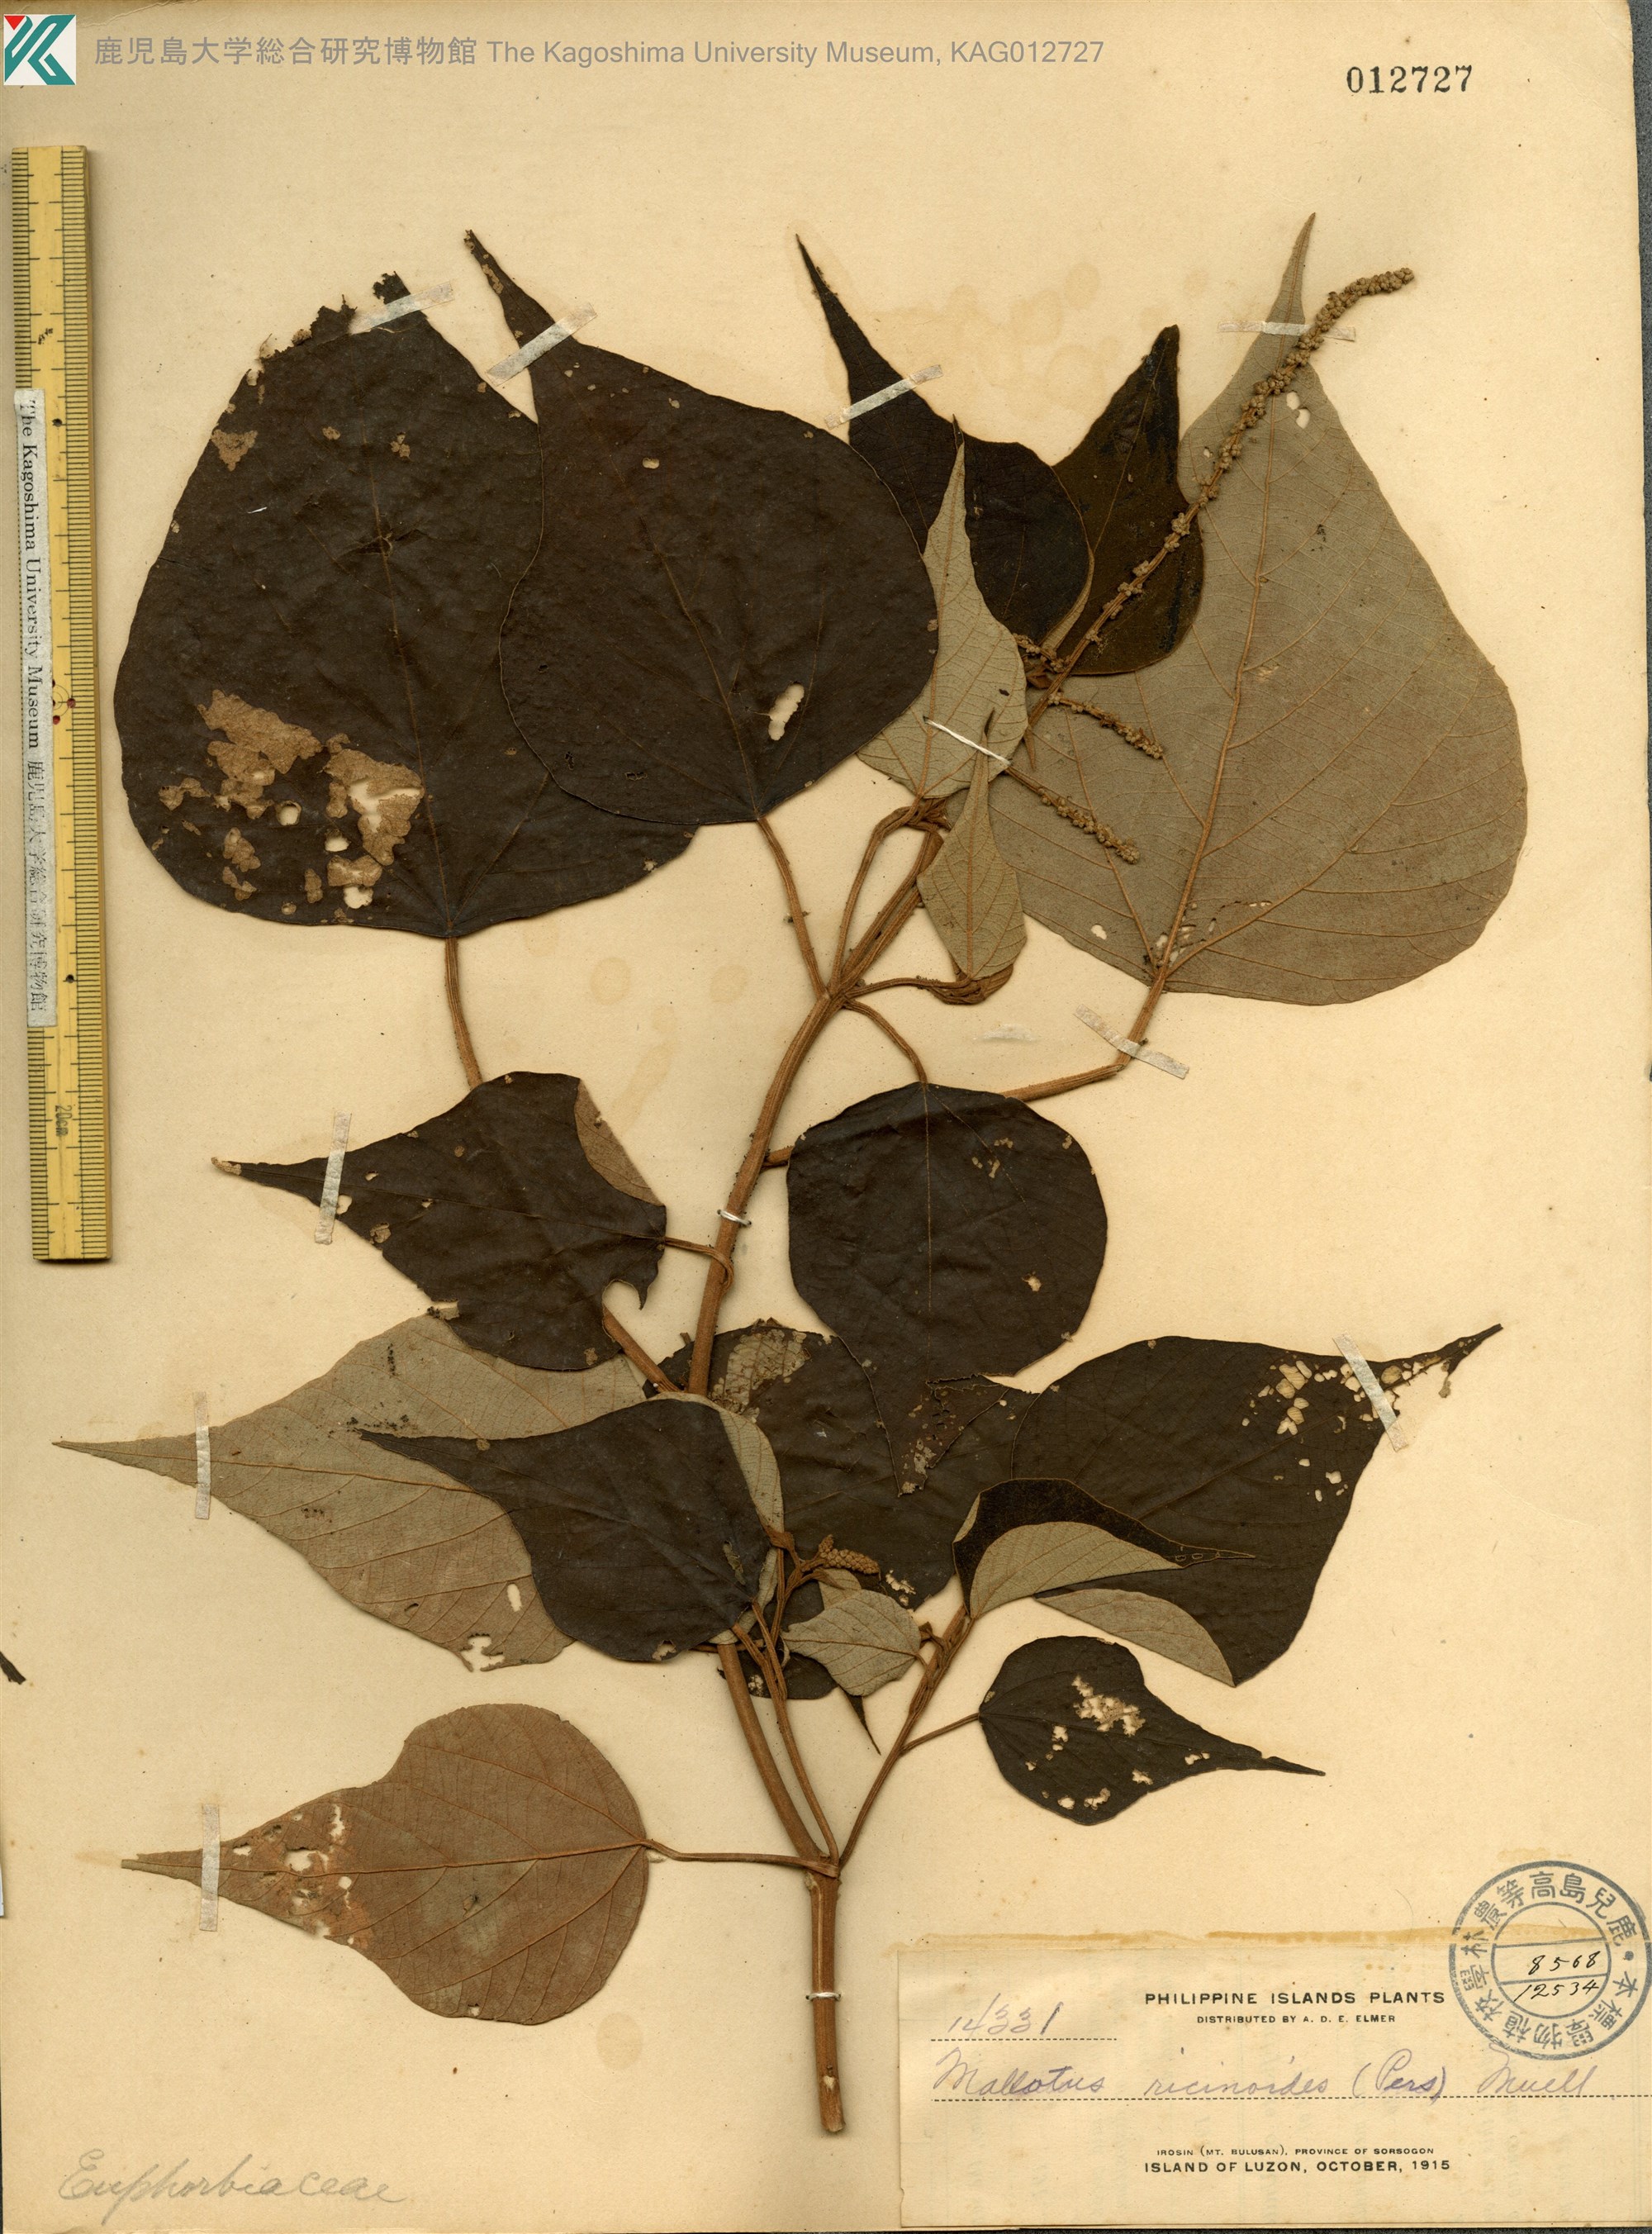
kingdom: Plantae
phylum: Tracheophyta
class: Magnoliopsida
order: Malpighiales
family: Euphorbiaceae
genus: Mallotus
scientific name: Mallotus mollissimus
